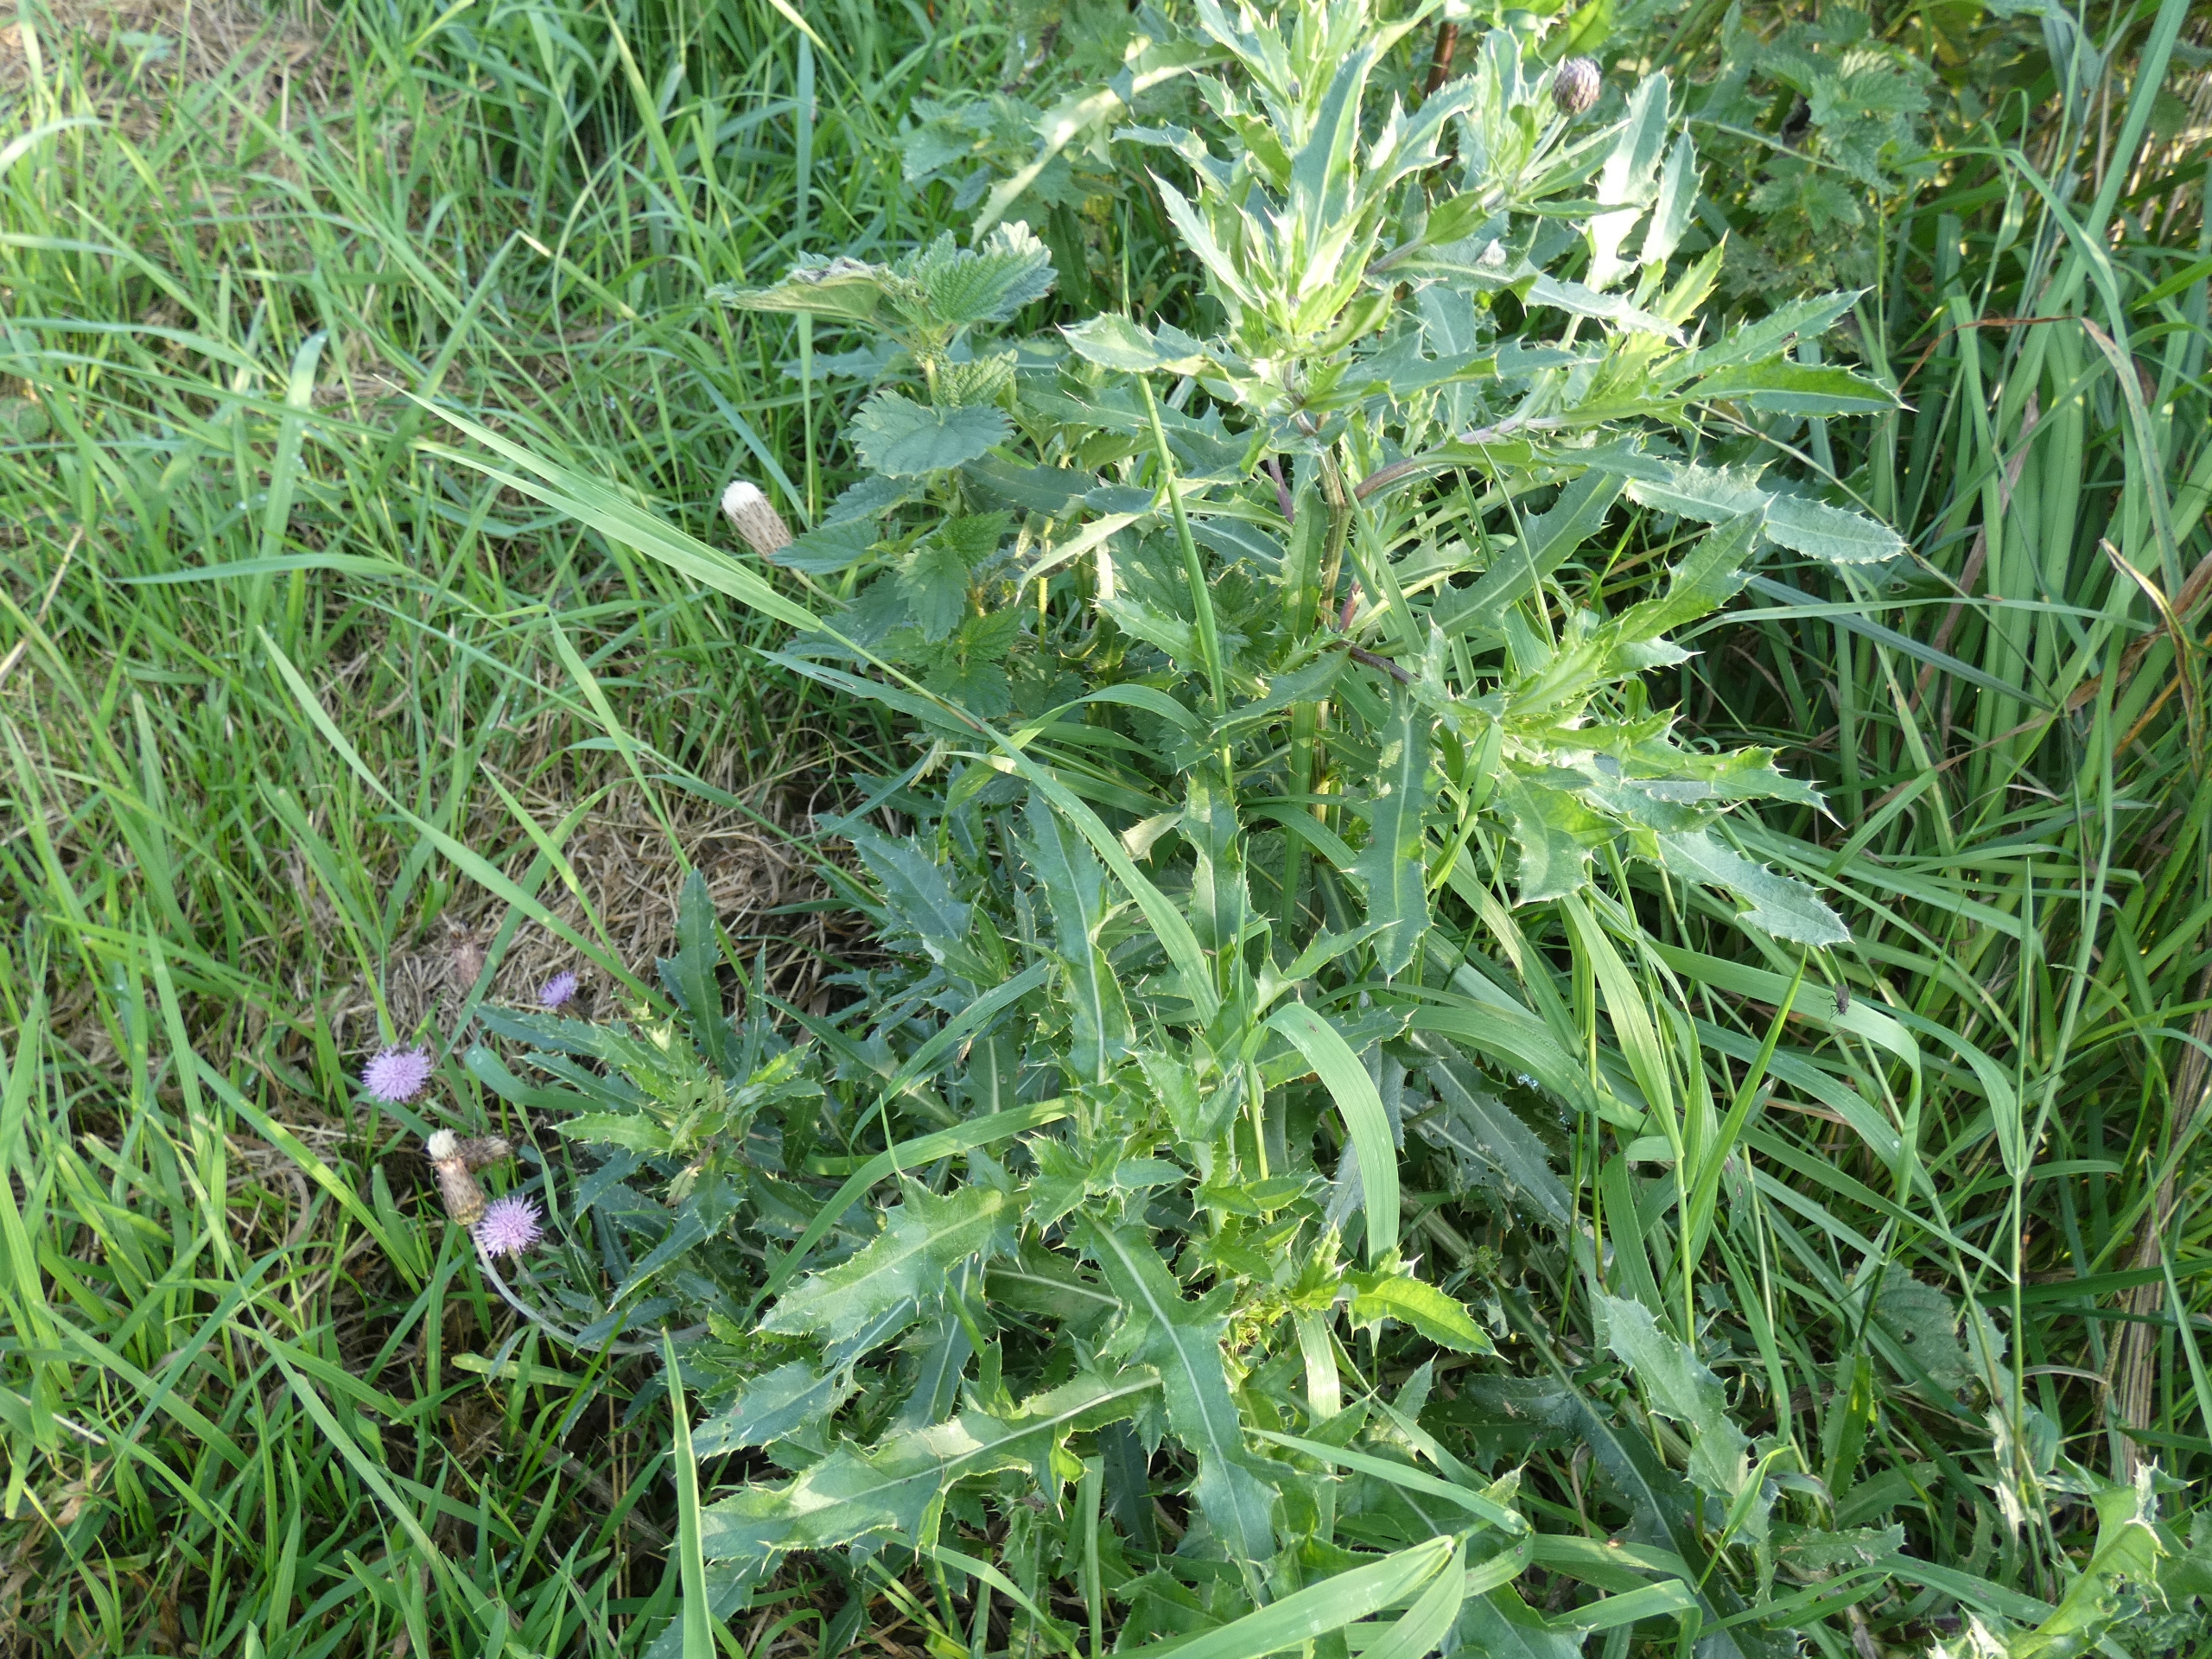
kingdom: Plantae
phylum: Tracheophyta
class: Magnoliopsida
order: Asterales
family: Asteraceae
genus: Cirsium
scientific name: Cirsium arvense
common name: Ager-tidsel
